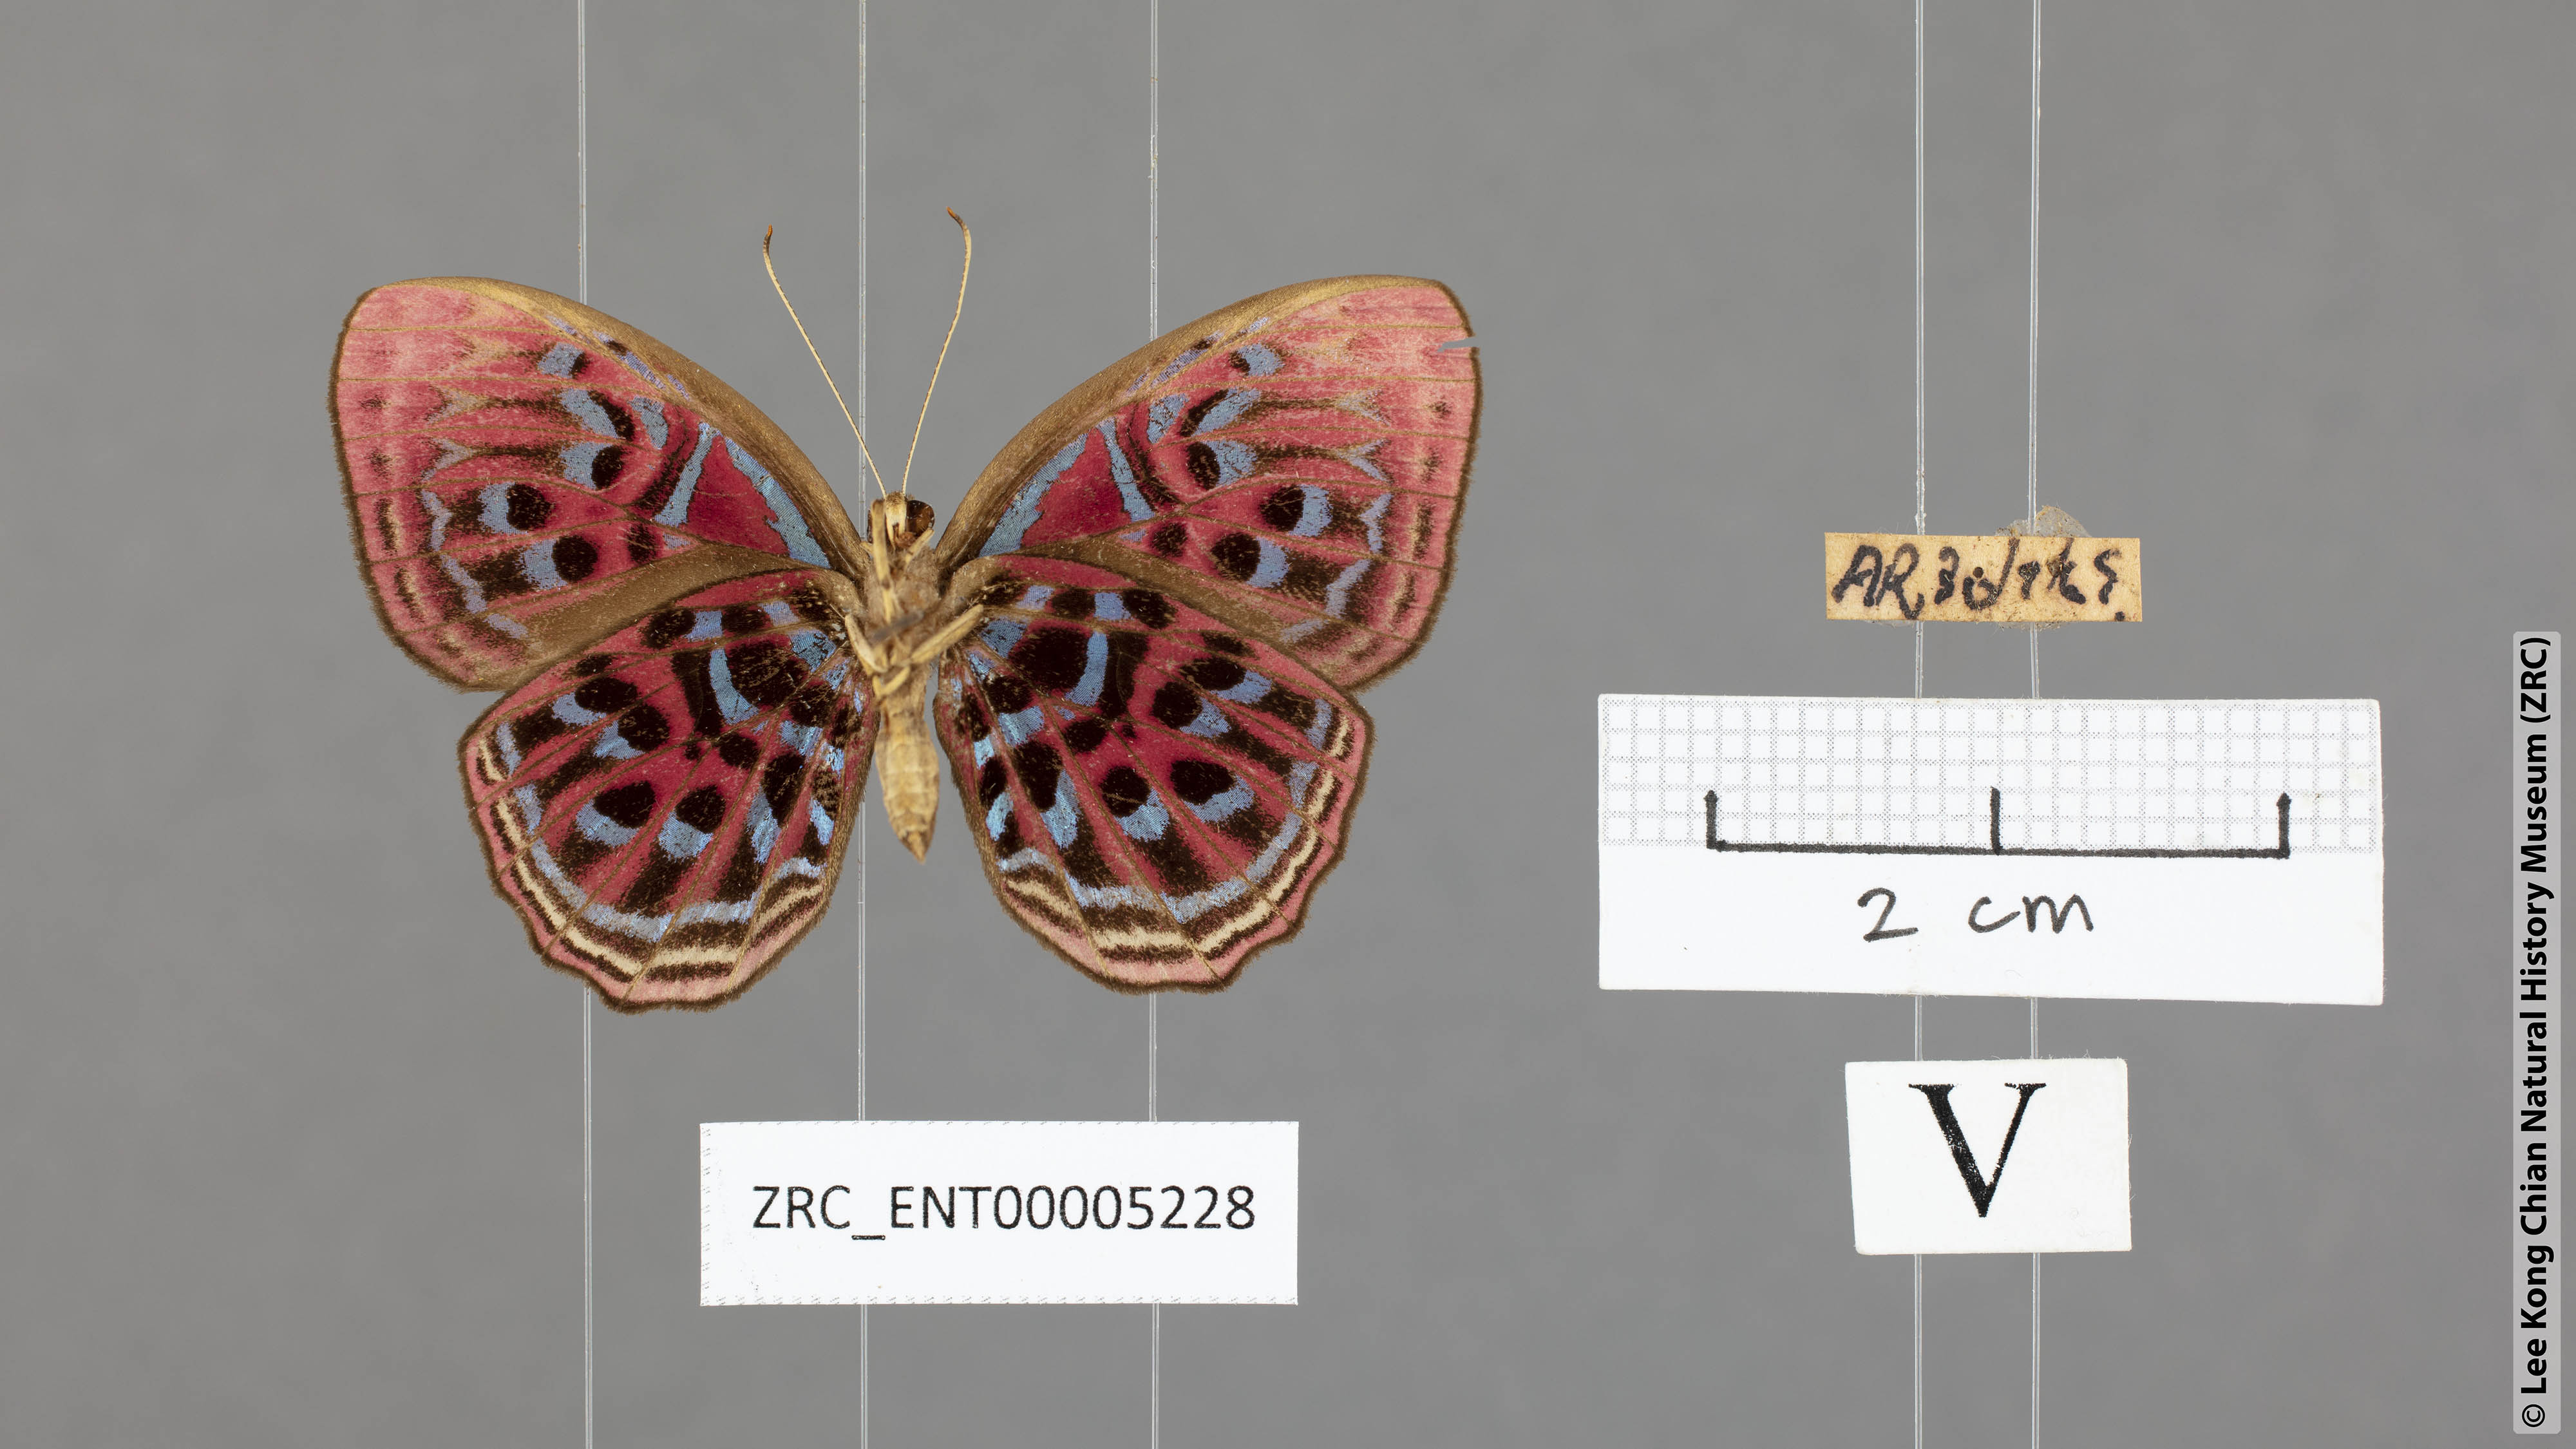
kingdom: Animalia
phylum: Arthropoda
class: Insecta
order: Lepidoptera
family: Riodinidae
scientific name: Riodinidae
